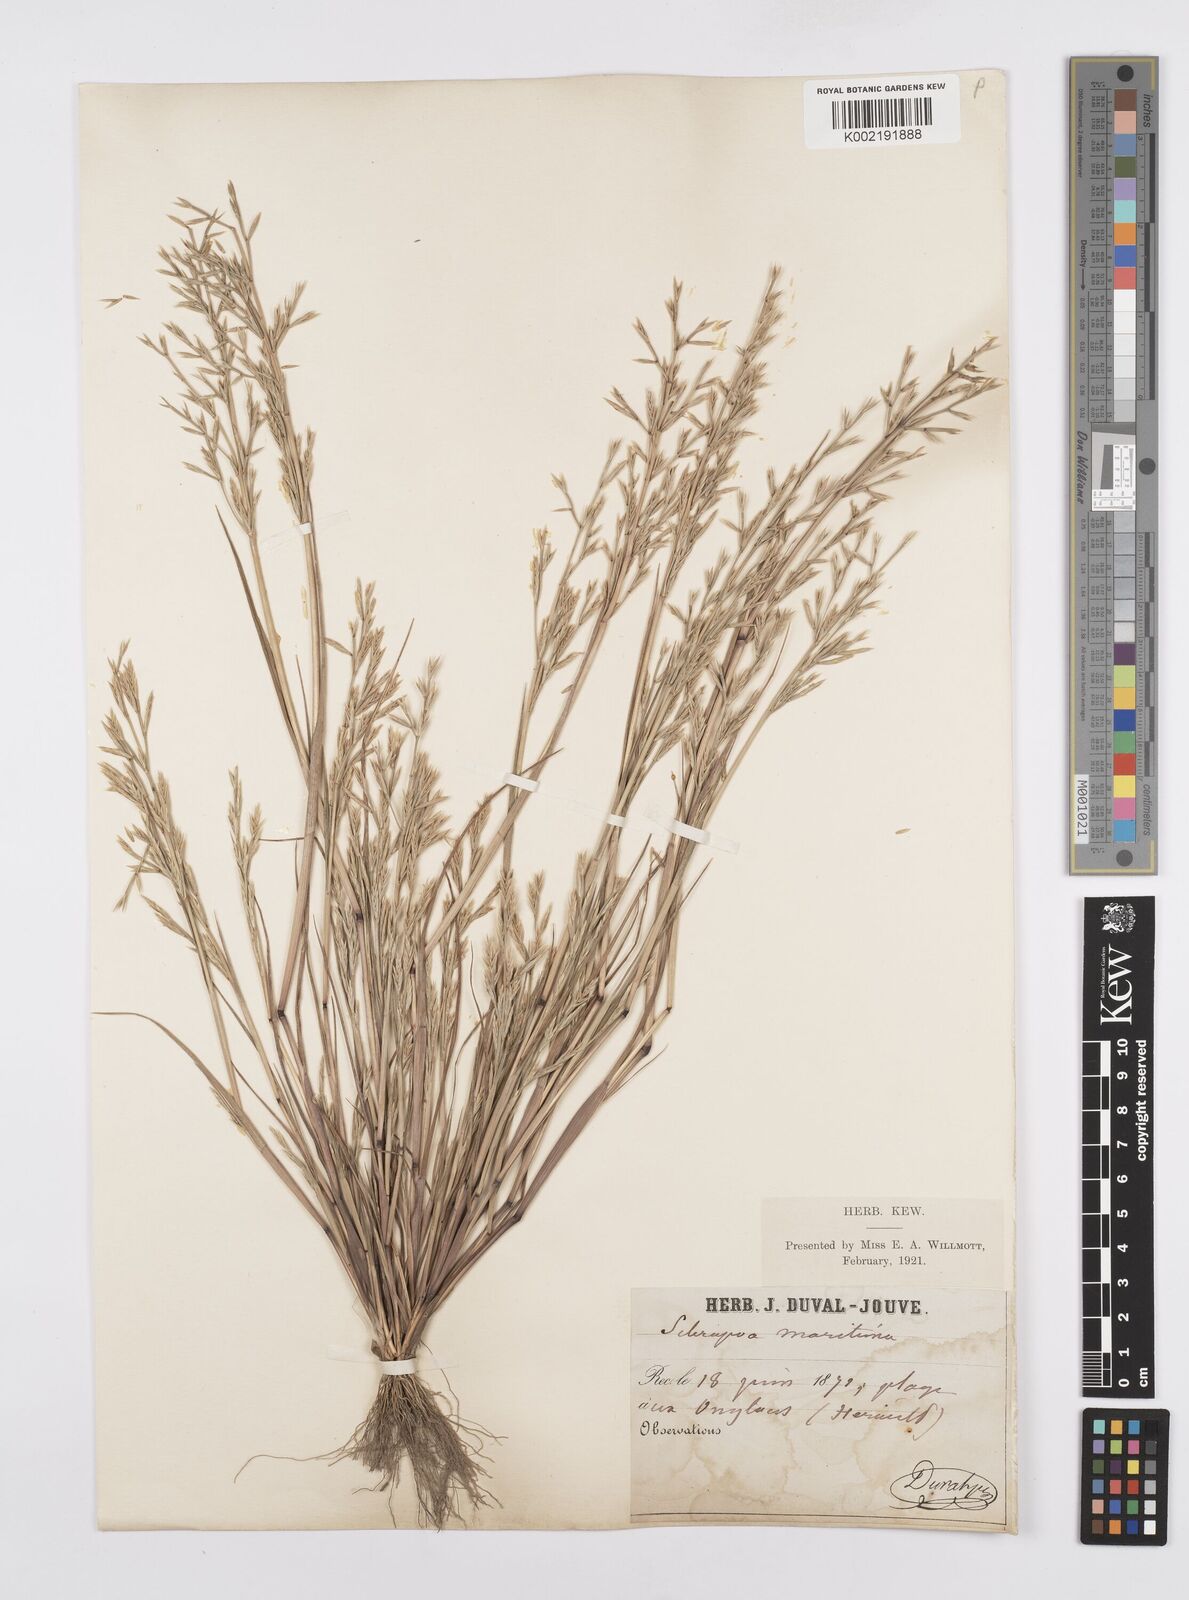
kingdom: Plantae
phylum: Tracheophyta
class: Liliopsida
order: Poales
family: Poaceae
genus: Cutandia
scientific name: Cutandia maritima
